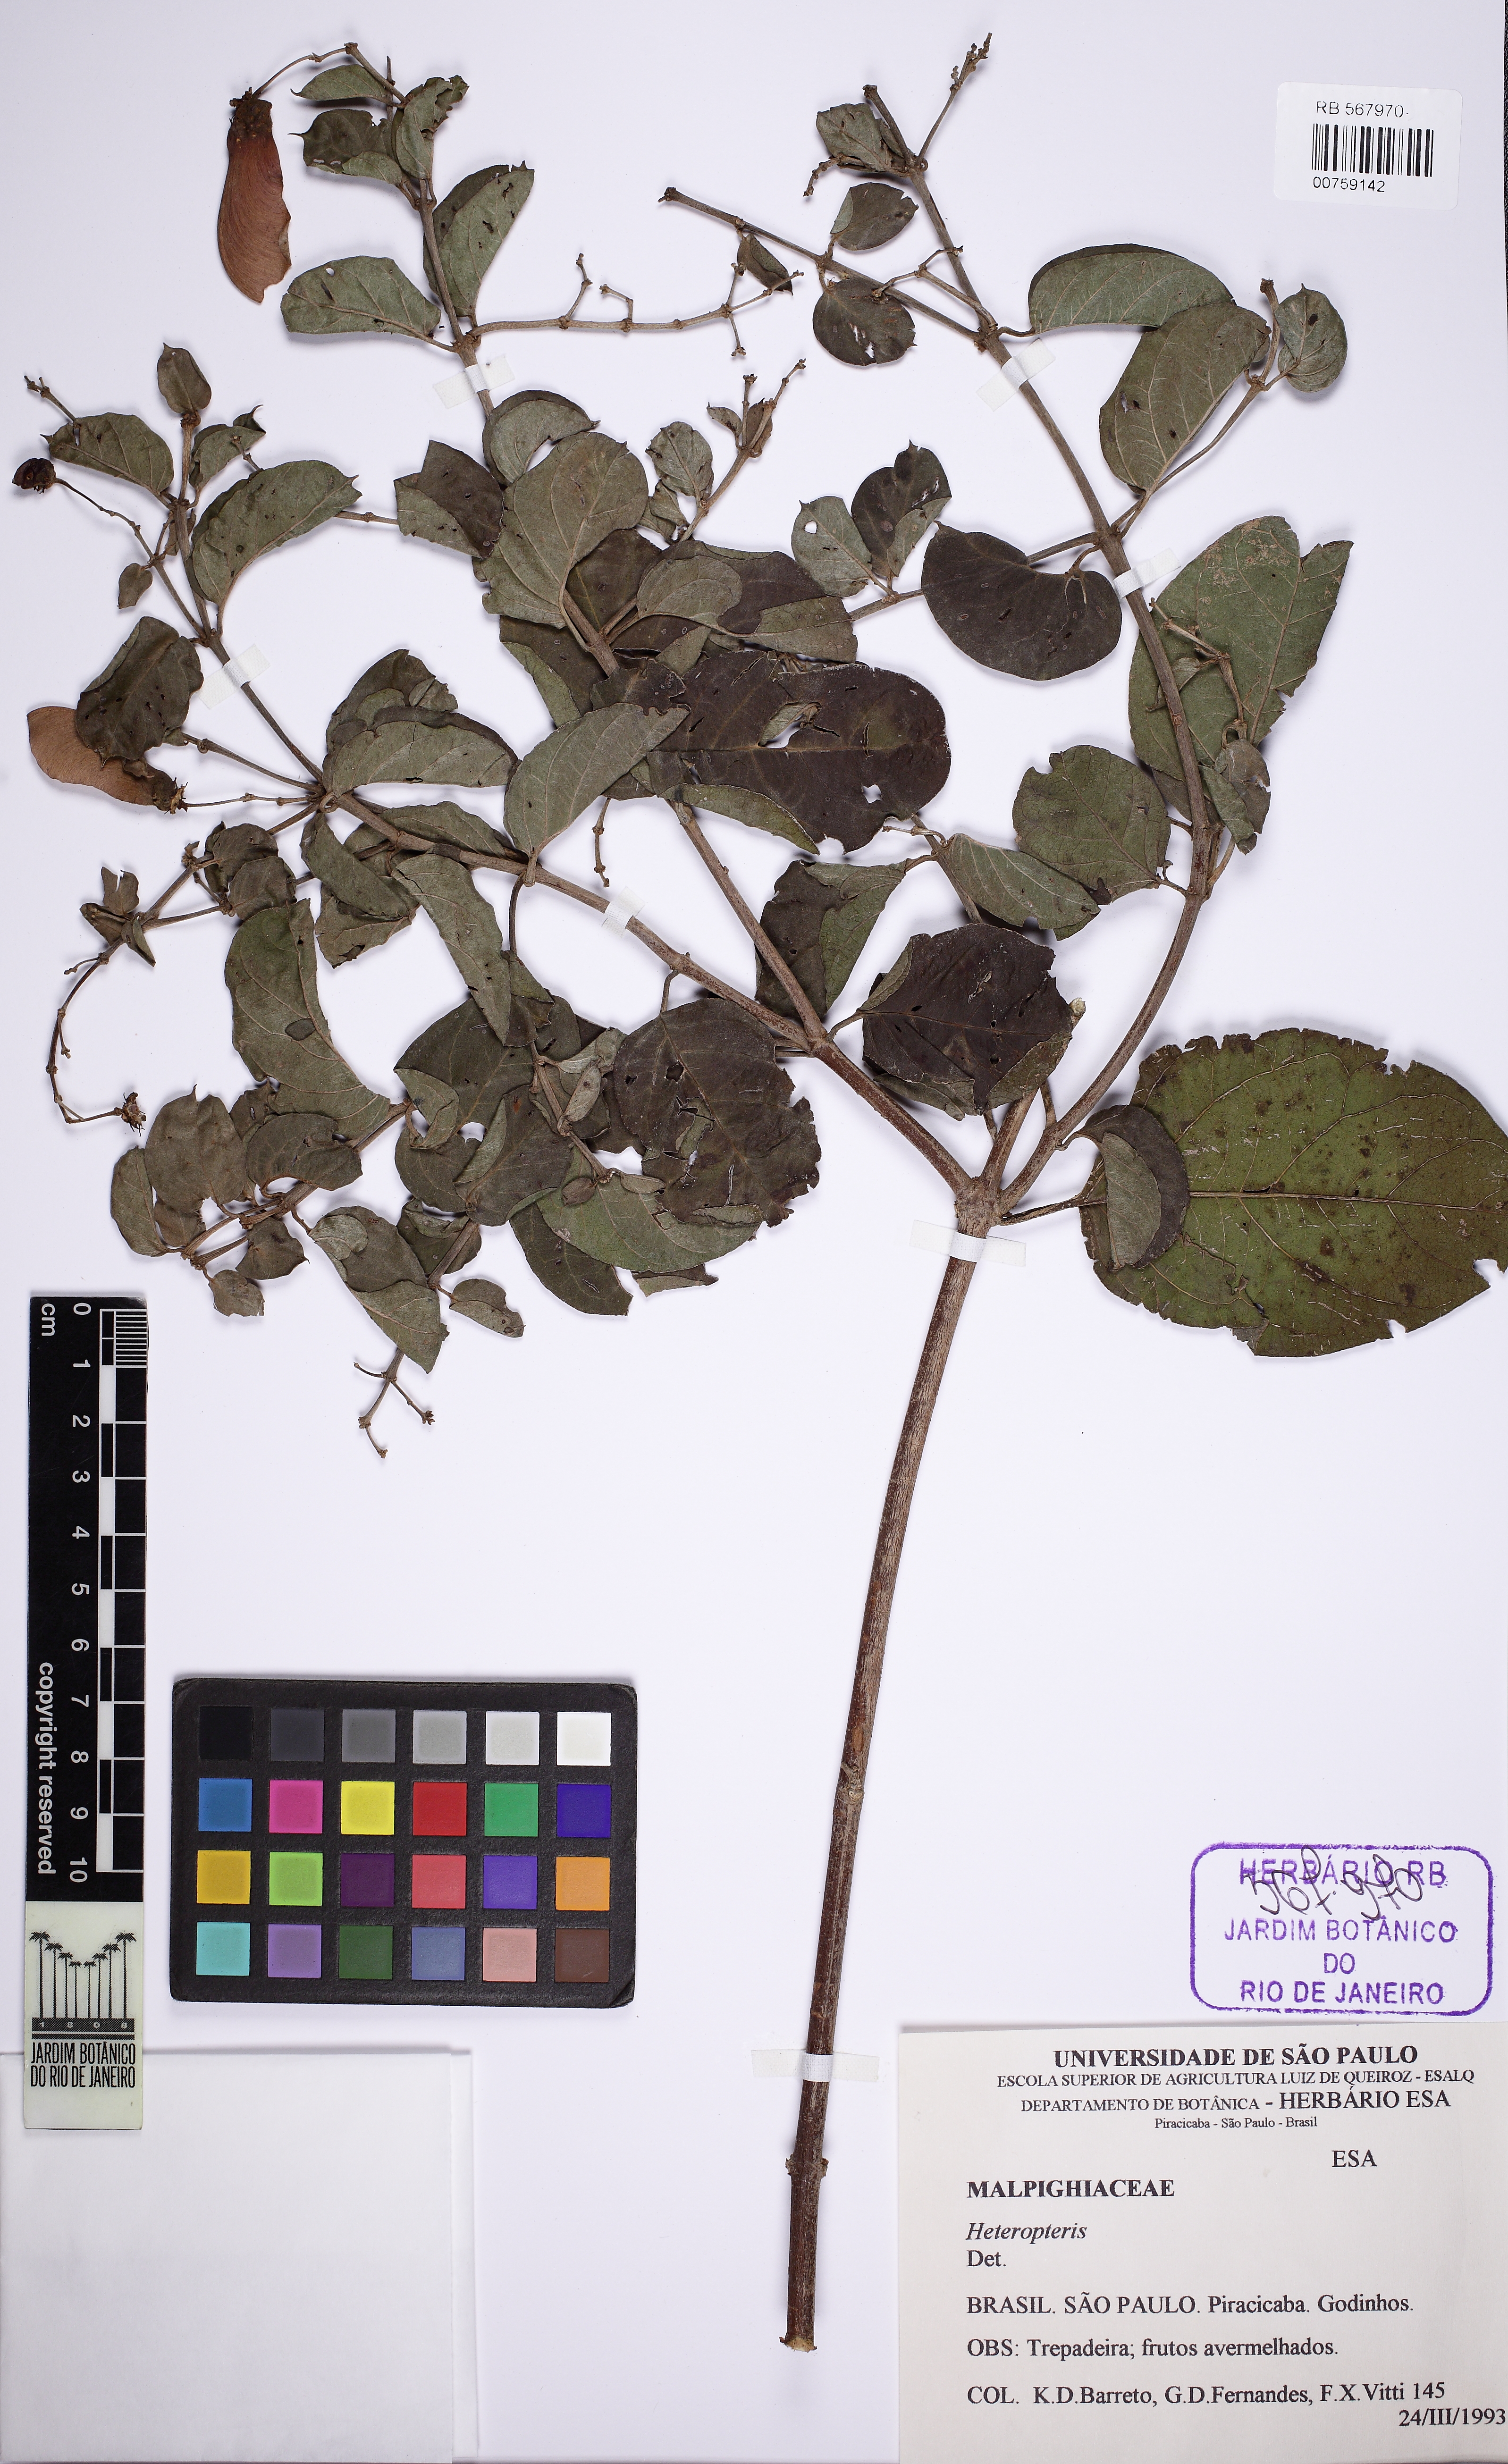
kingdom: Plantae
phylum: Tracheophyta
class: Magnoliopsida
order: Malpighiales
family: Malpighiaceae
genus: Banisteriopsis
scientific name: Banisteriopsis
